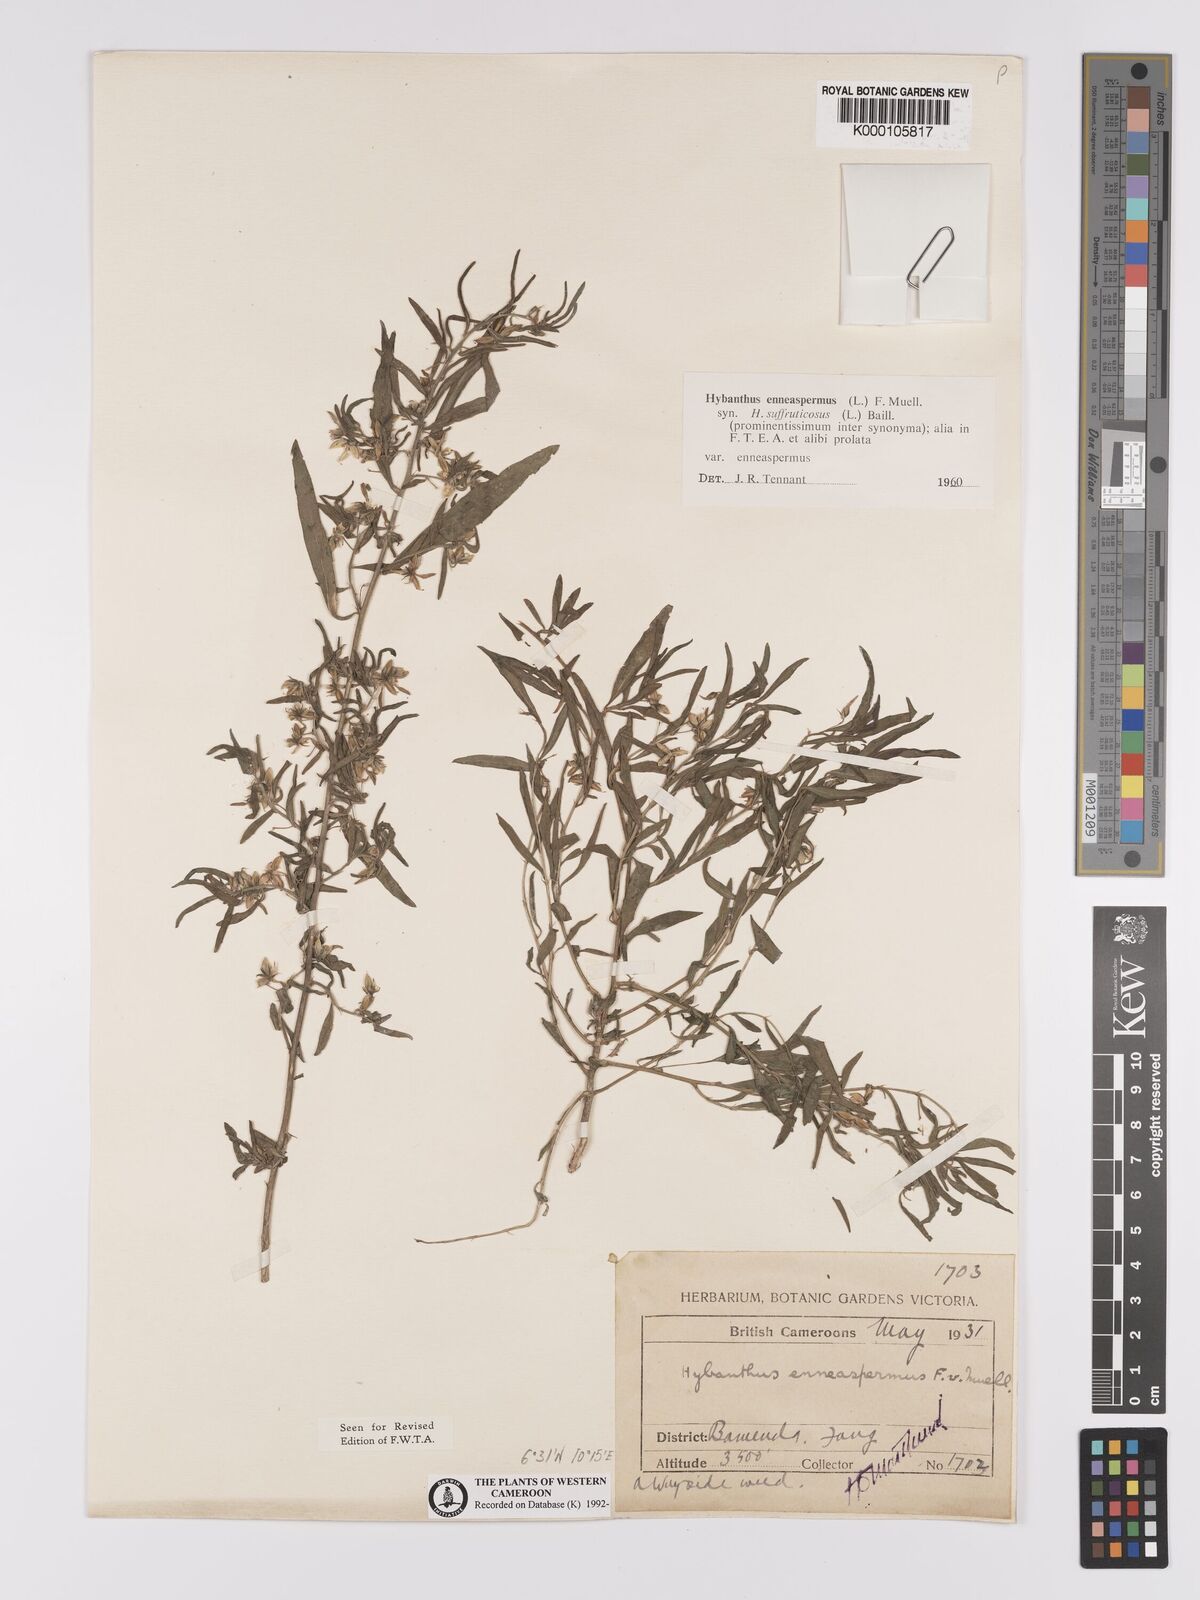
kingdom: Plantae
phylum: Tracheophyta
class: Magnoliopsida
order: Malpighiales
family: Violaceae
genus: Pigea
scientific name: Pigea enneasperma
